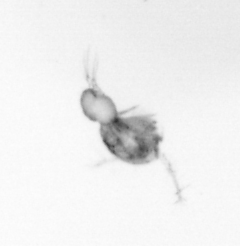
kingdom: Animalia
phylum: Arthropoda
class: Copepoda
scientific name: Copepoda
